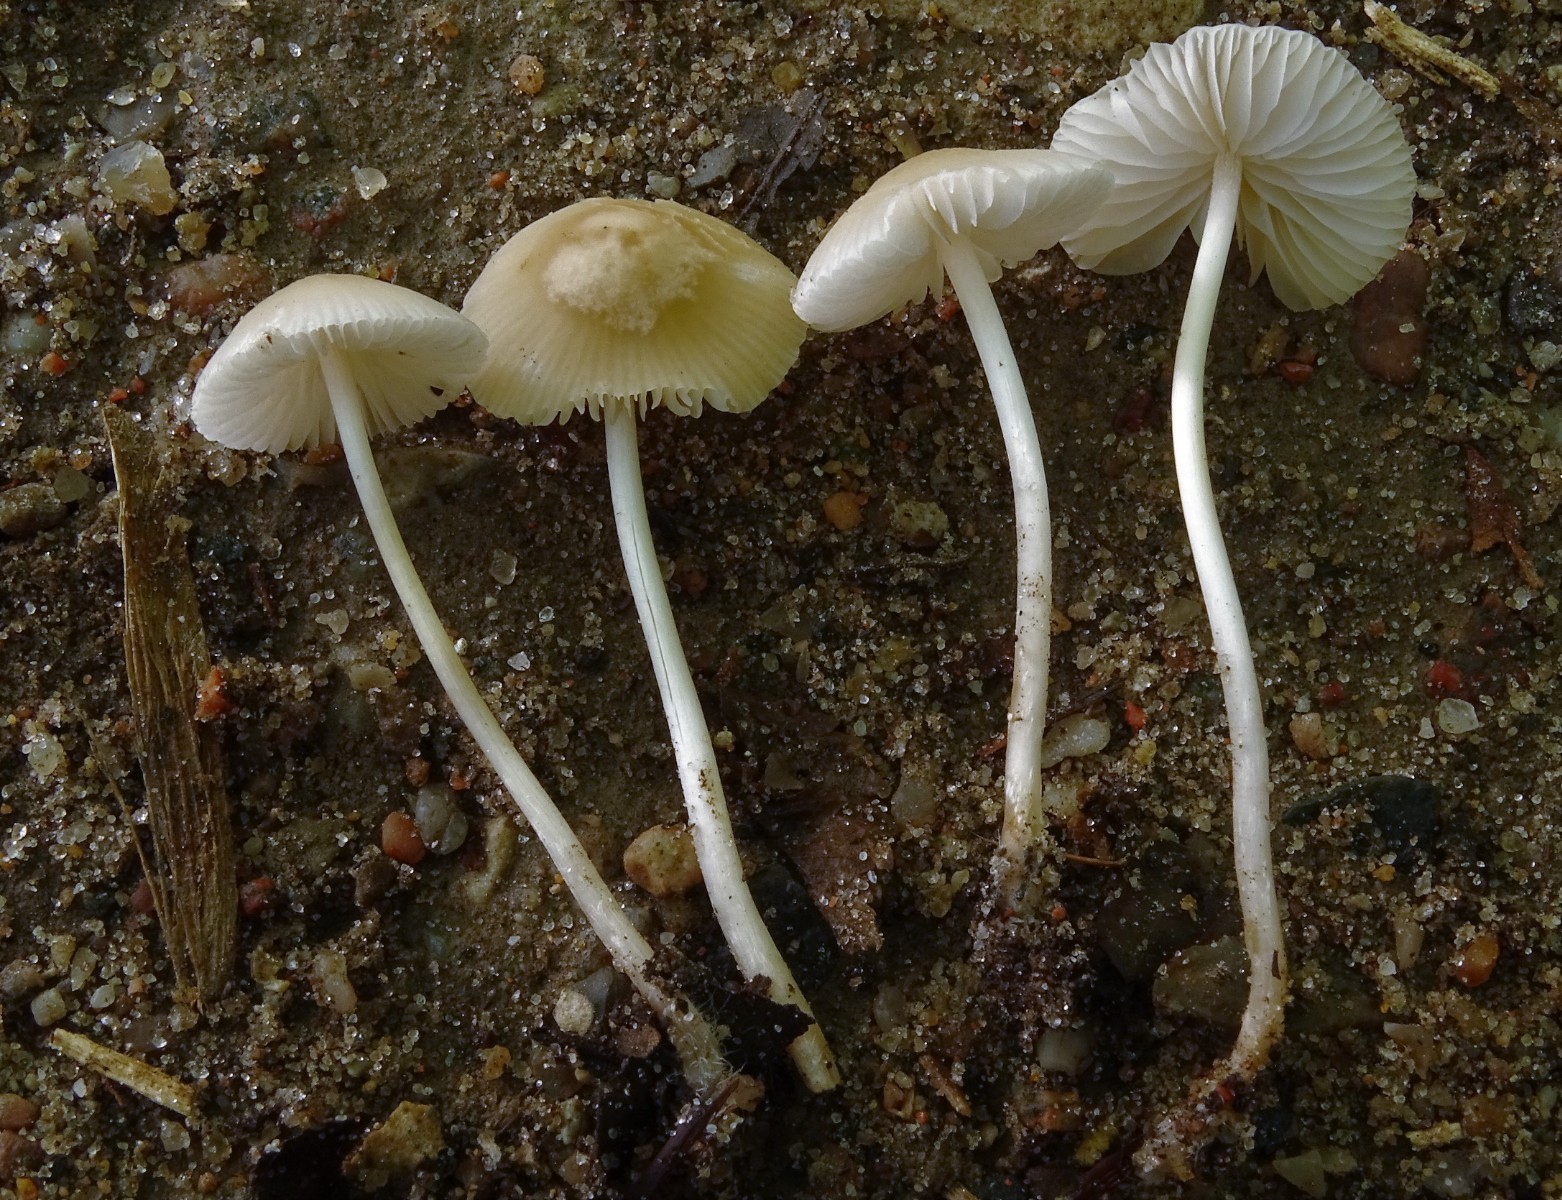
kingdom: Fungi
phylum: Basidiomycota
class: Agaricomycetes
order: Agaricales
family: Psathyrellaceae
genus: Psathyrella
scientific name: Psathyrella
